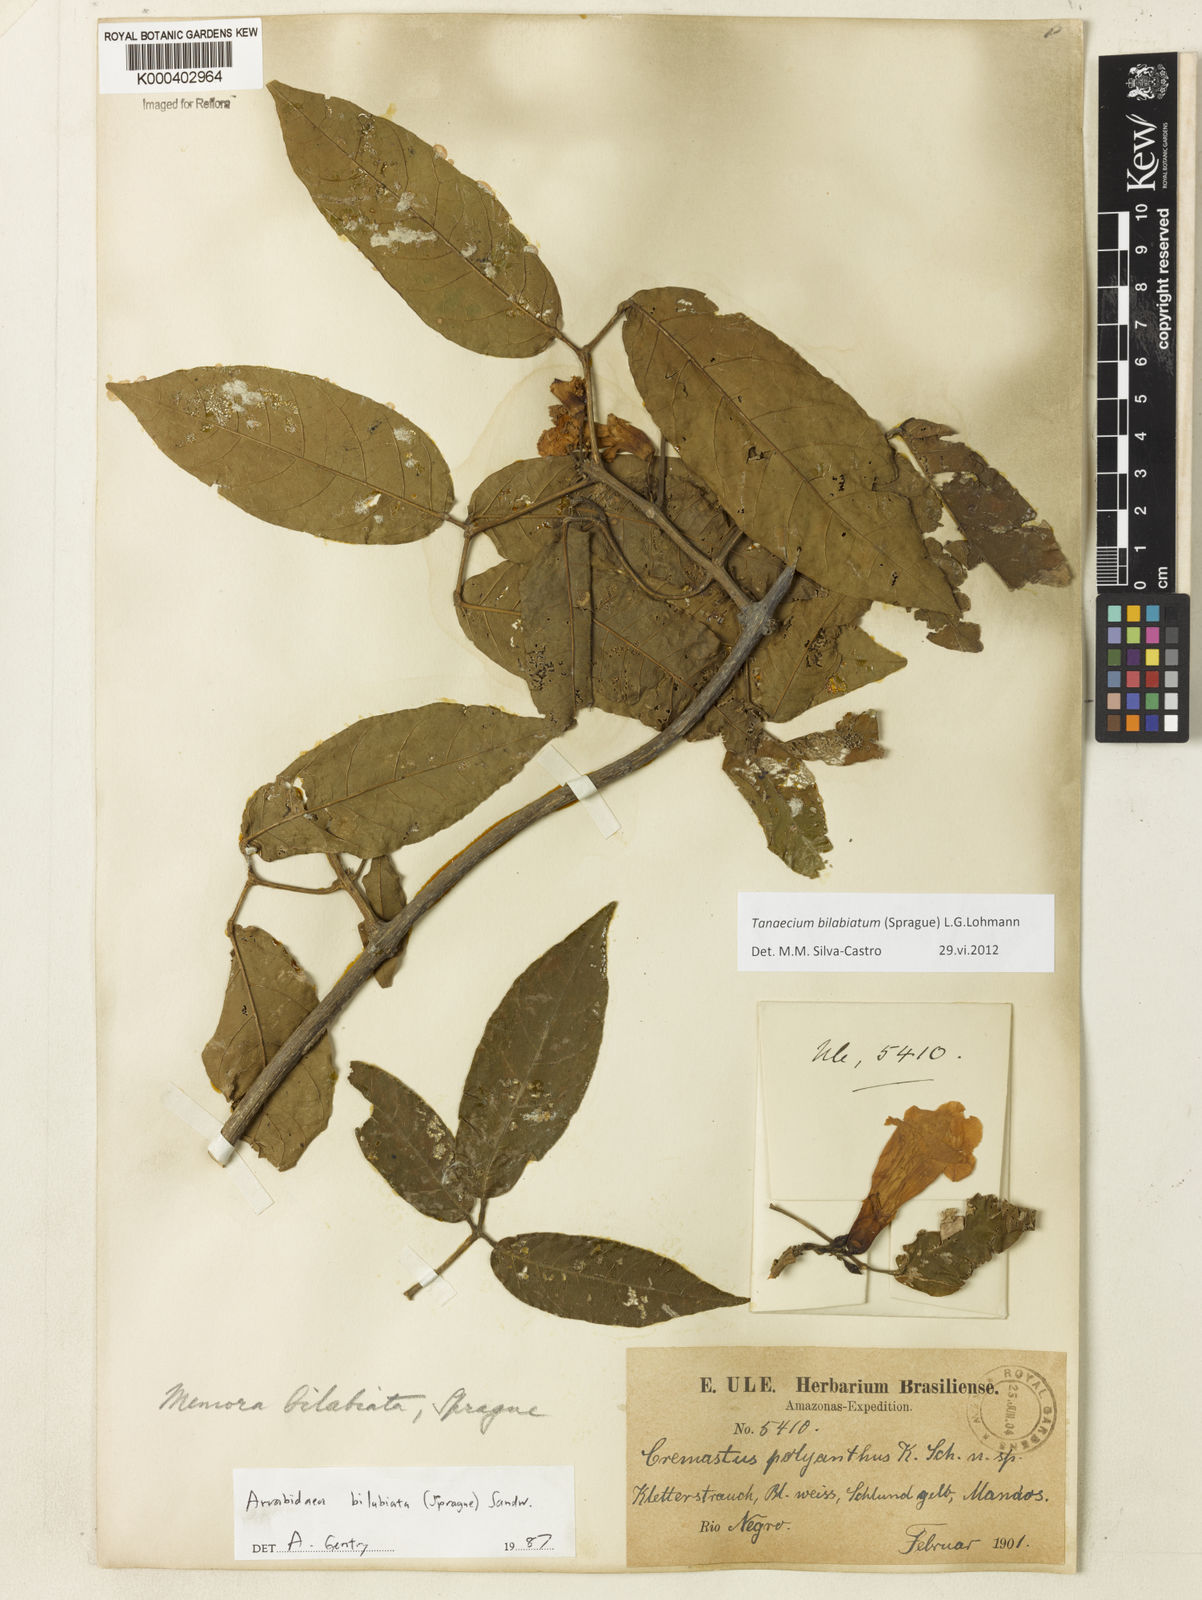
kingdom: Plantae
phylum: Tracheophyta
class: Magnoliopsida
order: Lamiales
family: Bignoniaceae
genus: Tanaecium
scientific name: Tanaecium bilabiatum
